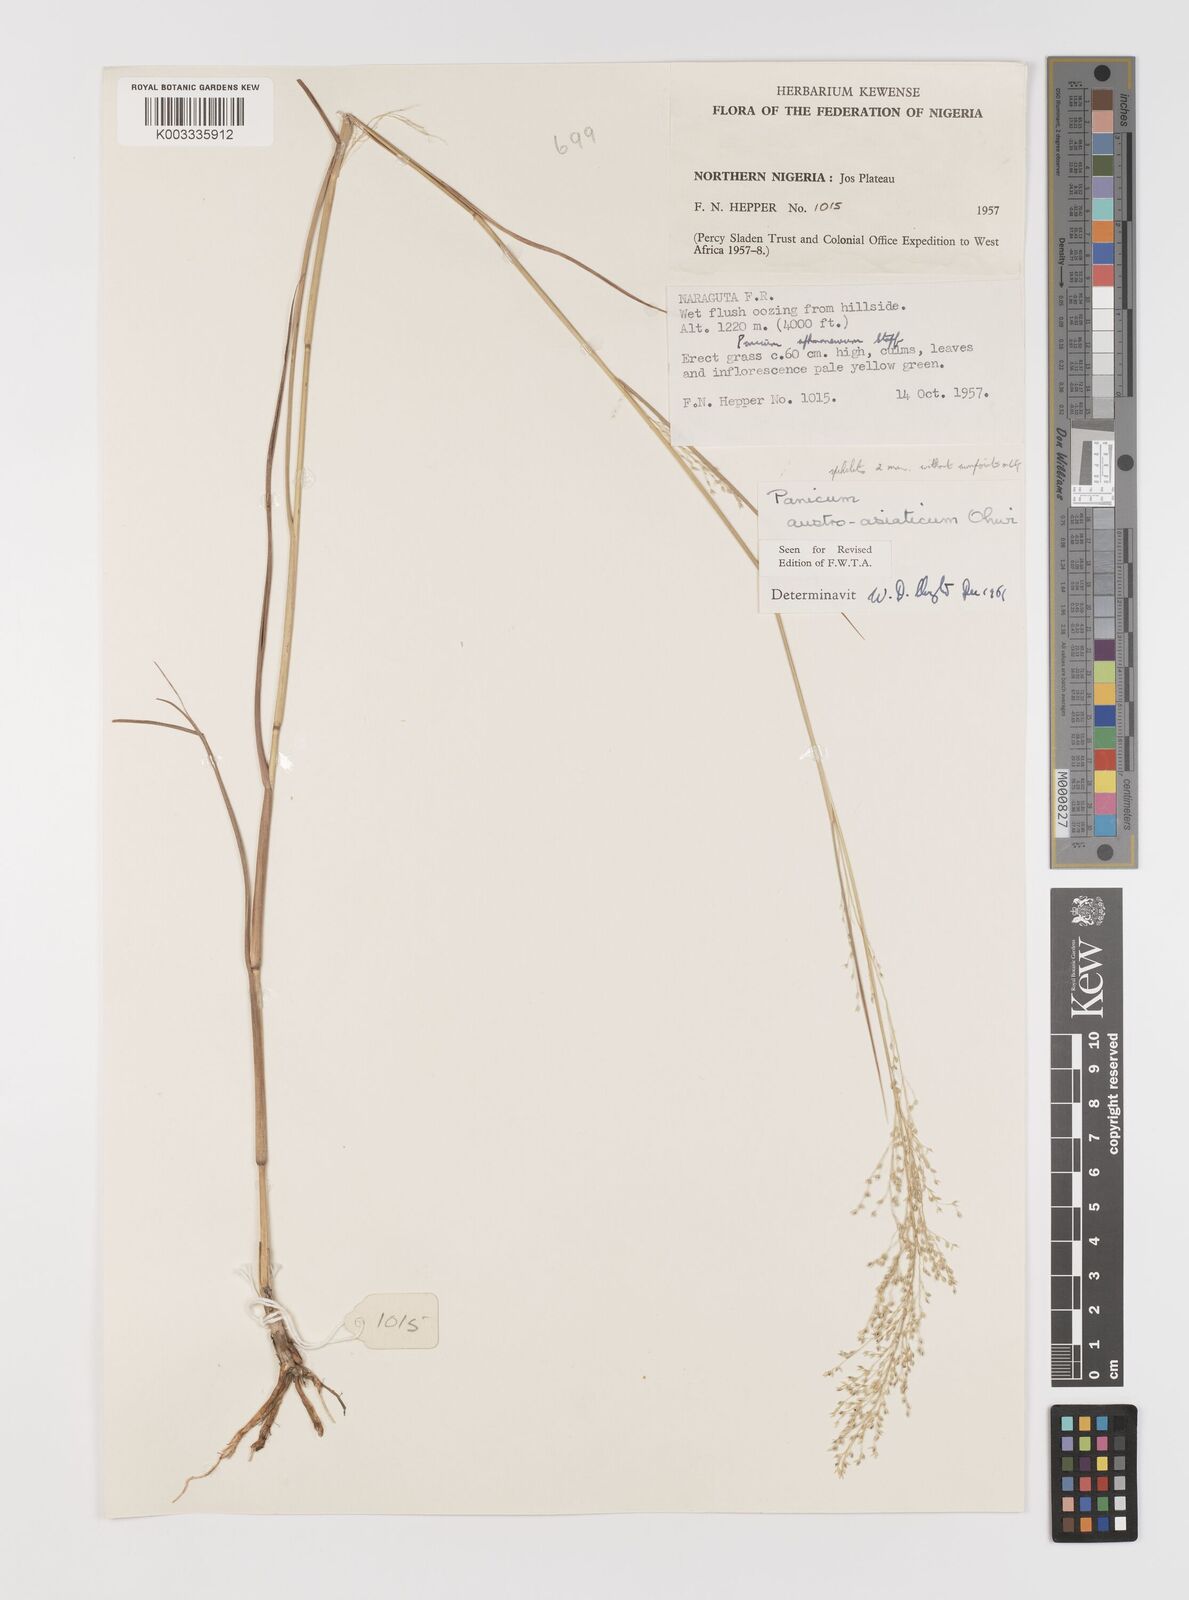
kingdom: Plantae
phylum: Tracheophyta
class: Liliopsida
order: Poales
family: Poaceae
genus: Panicum
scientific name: Panicum humile
